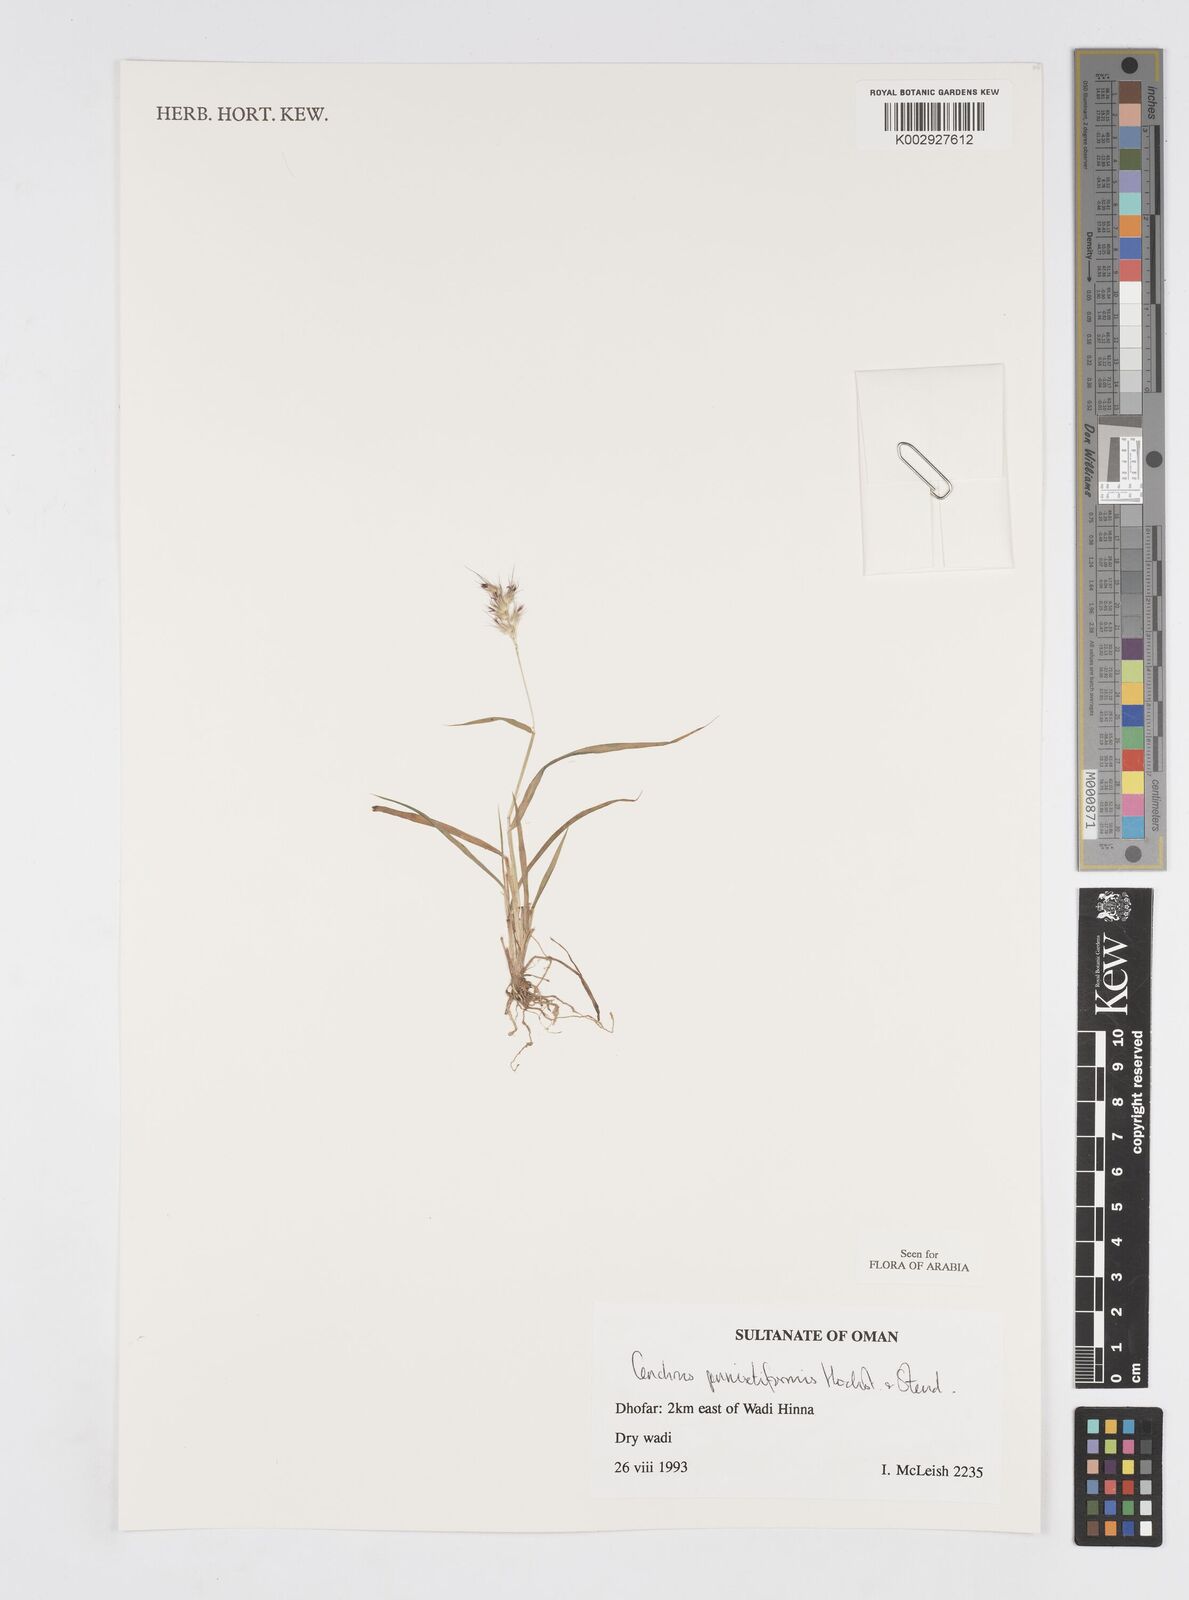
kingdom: Plantae
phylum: Tracheophyta
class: Liliopsida
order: Poales
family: Poaceae
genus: Cenchrus
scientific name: Cenchrus pennisetiformis
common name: Cloncurry
